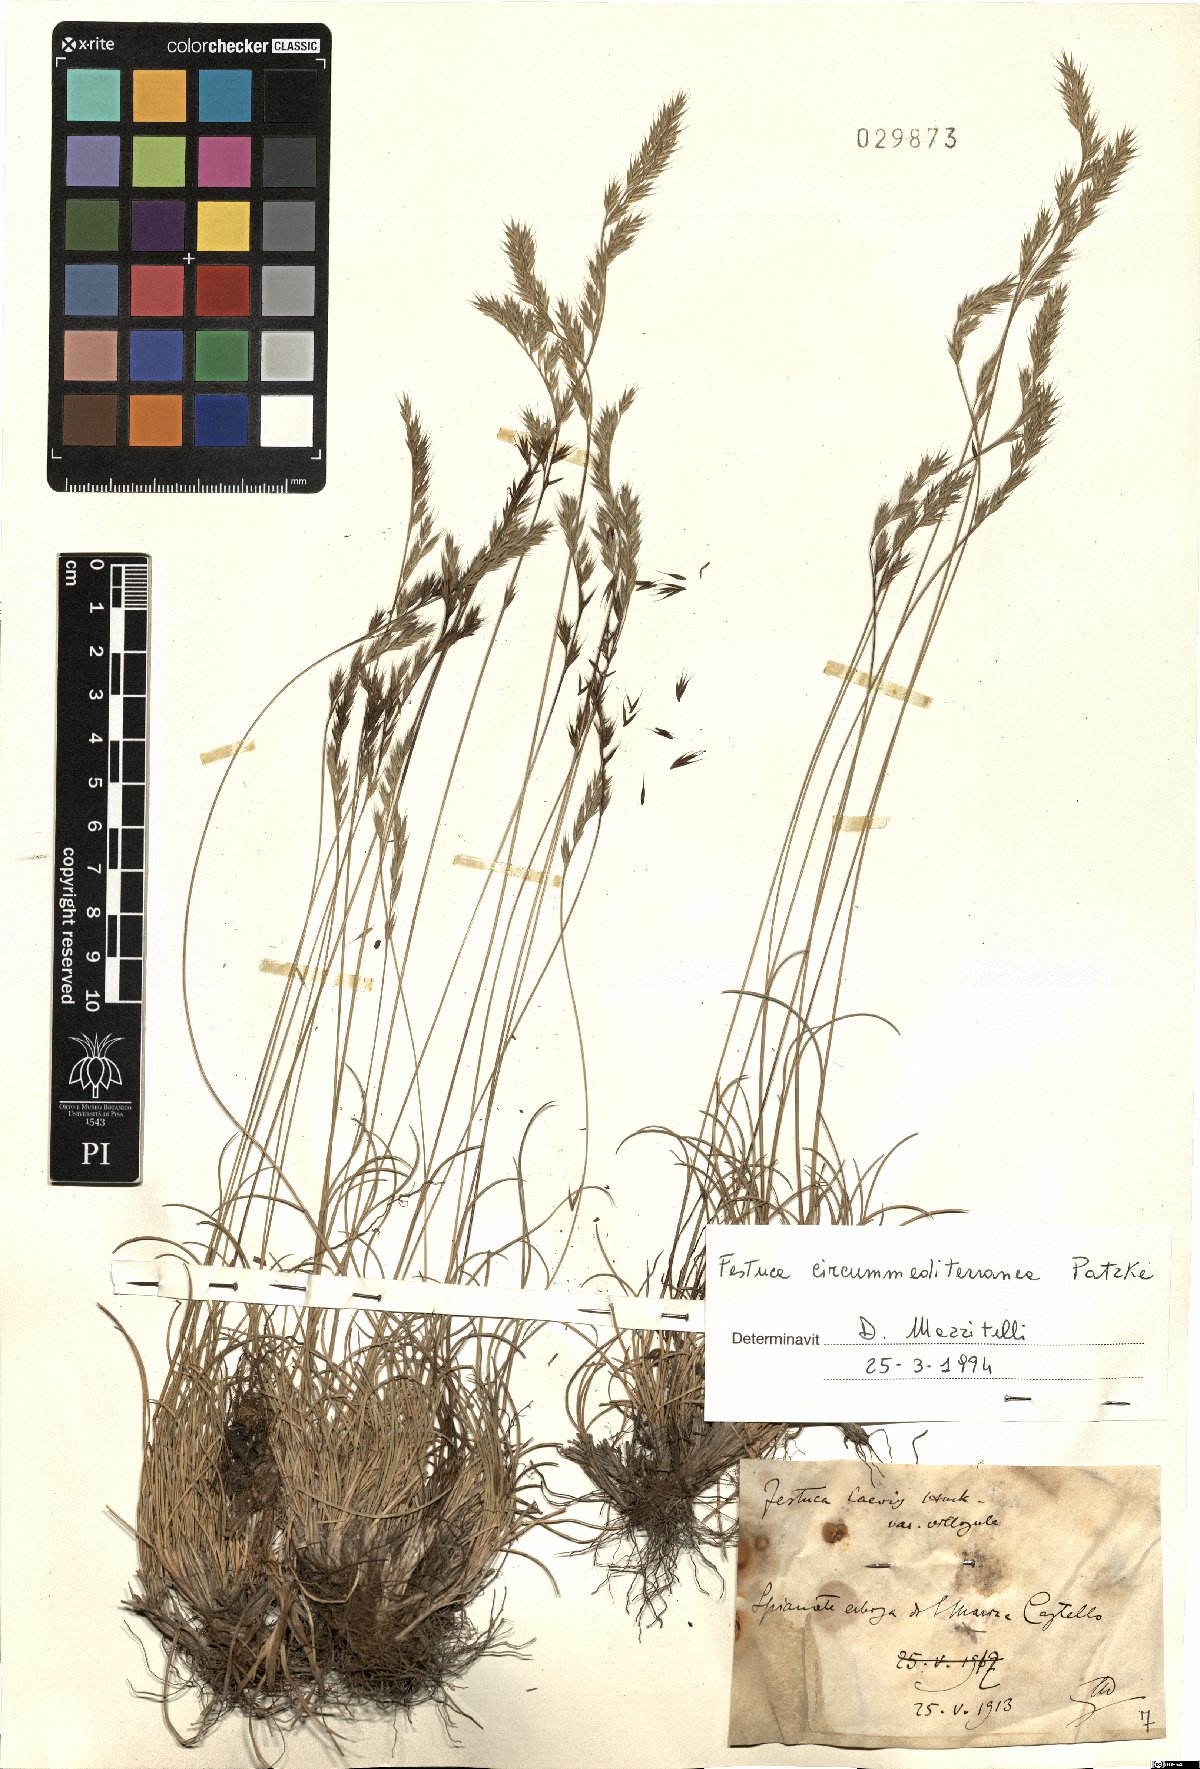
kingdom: Plantae
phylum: Tracheophyta
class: Liliopsida
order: Poales
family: Poaceae
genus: Festuca
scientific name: Festuca circummediterranea
